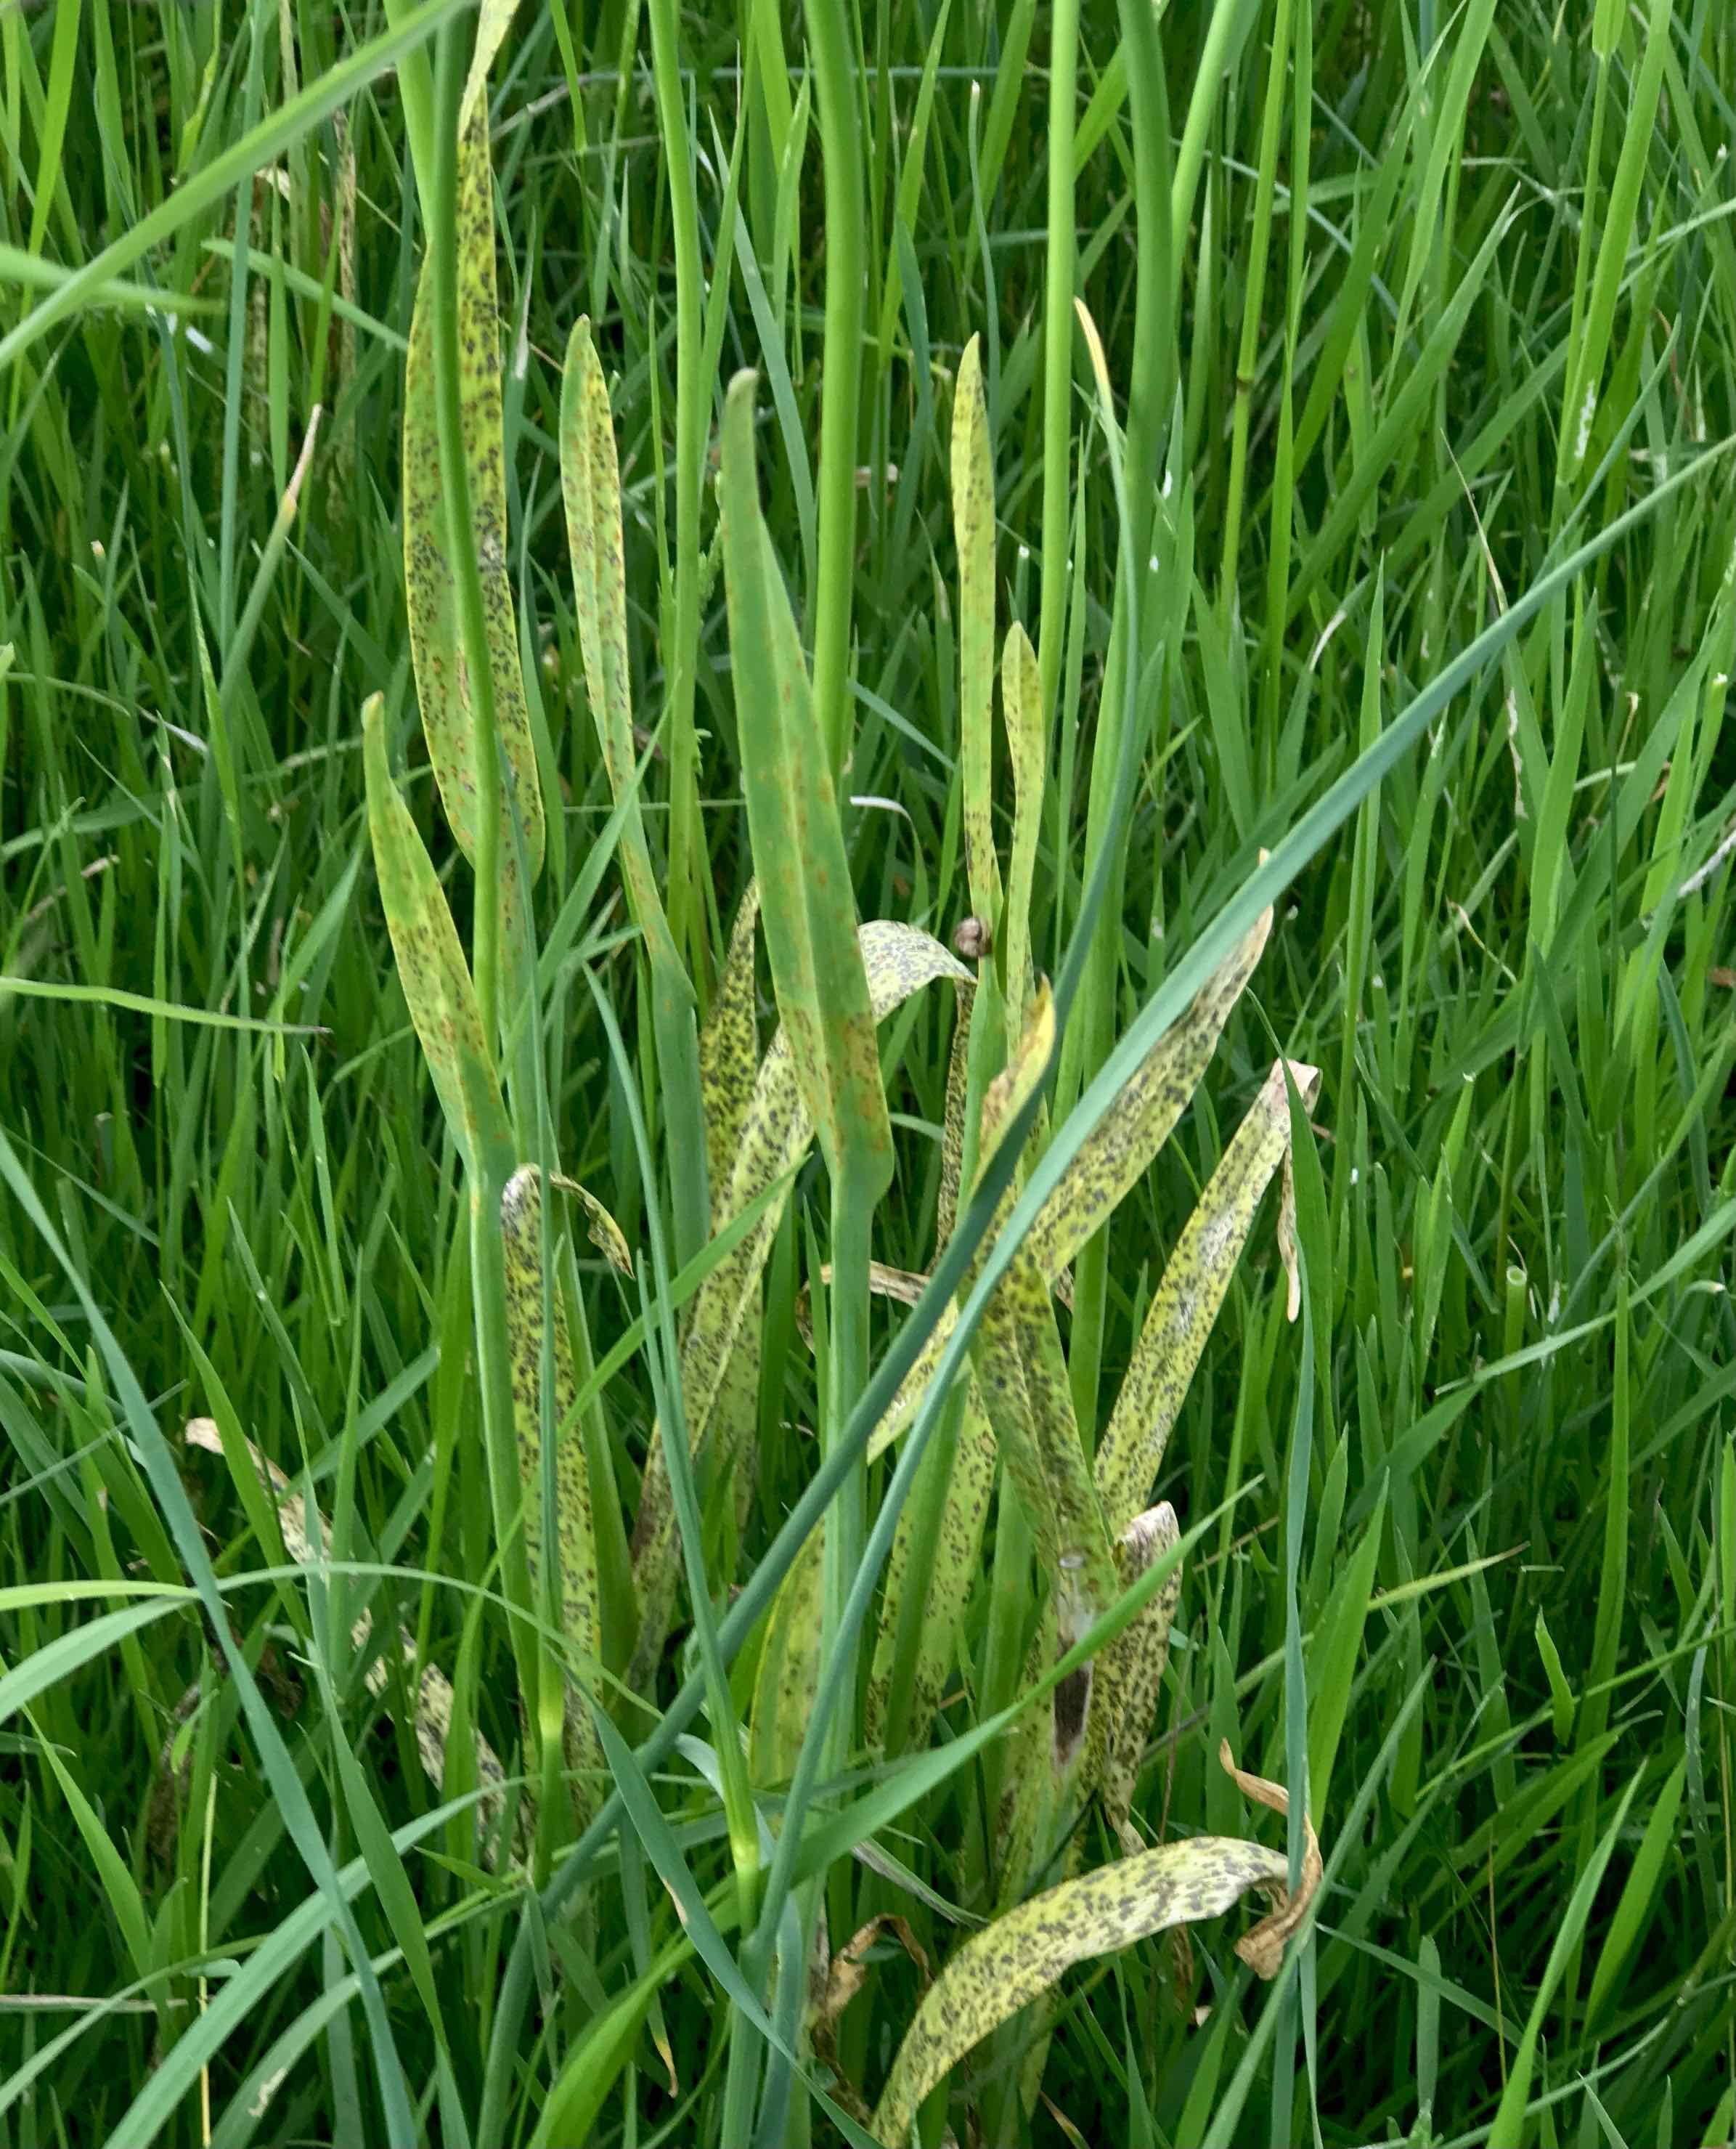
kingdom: Fungi
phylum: Basidiomycota
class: Pucciniomycetes
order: Pucciniales
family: Pucciniaceae
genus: Puccinia
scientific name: Puccinia porri
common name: Allium rust
